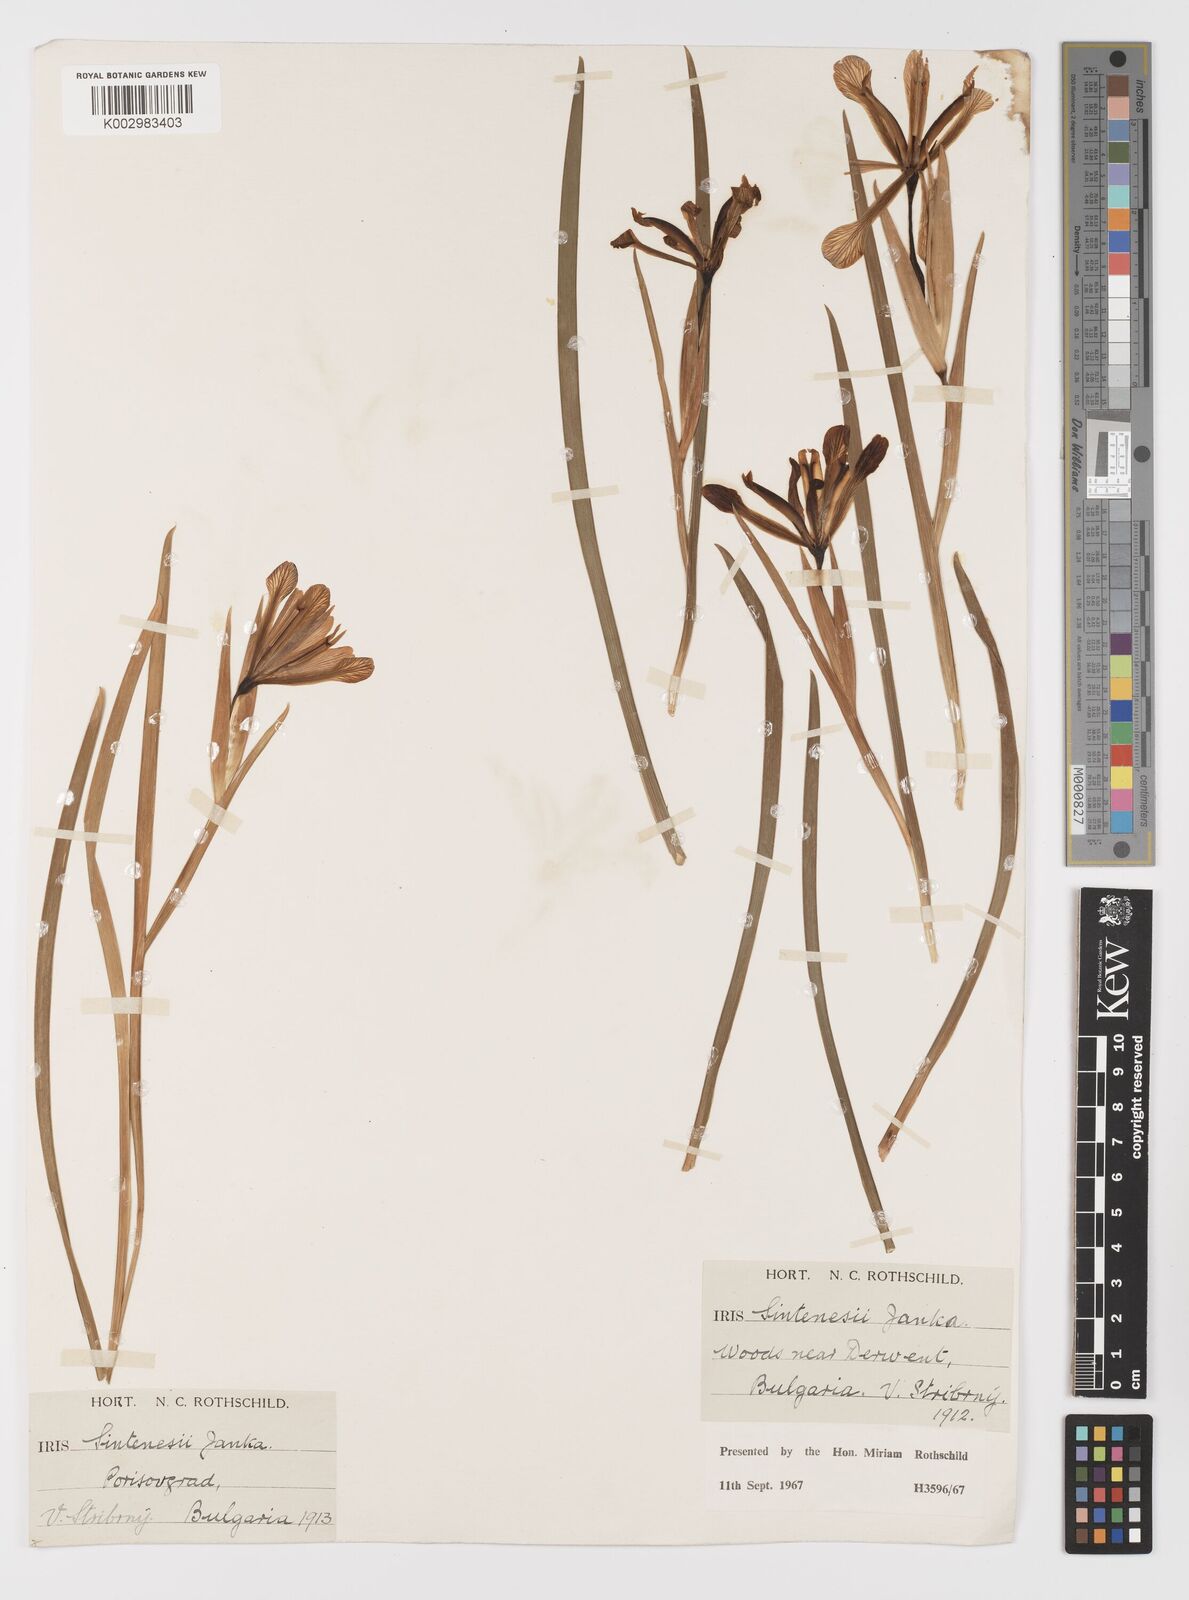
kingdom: Plantae
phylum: Tracheophyta
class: Liliopsida
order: Asparagales
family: Iridaceae
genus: Iris
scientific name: Iris sintenisii
